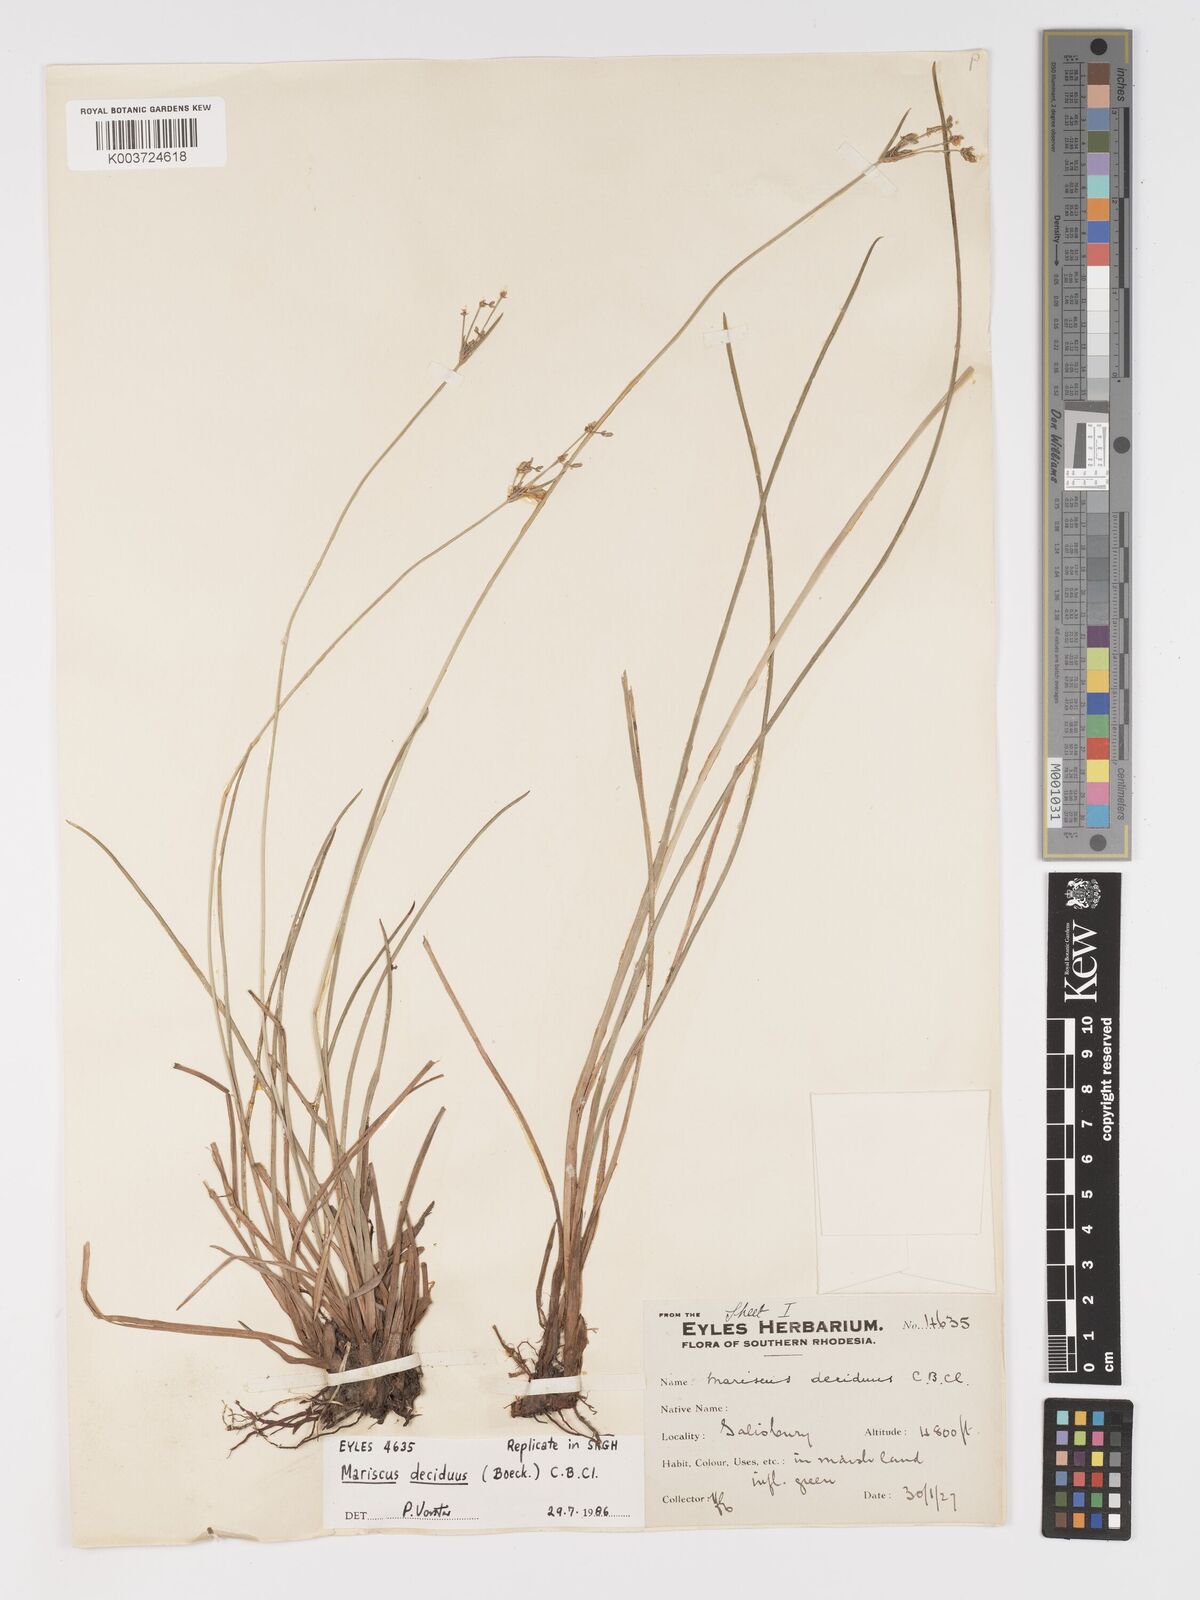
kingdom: Plantae
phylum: Tracheophyta
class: Liliopsida
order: Poales
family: Cyperaceae
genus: Cyperus
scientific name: Cyperus deciduus
